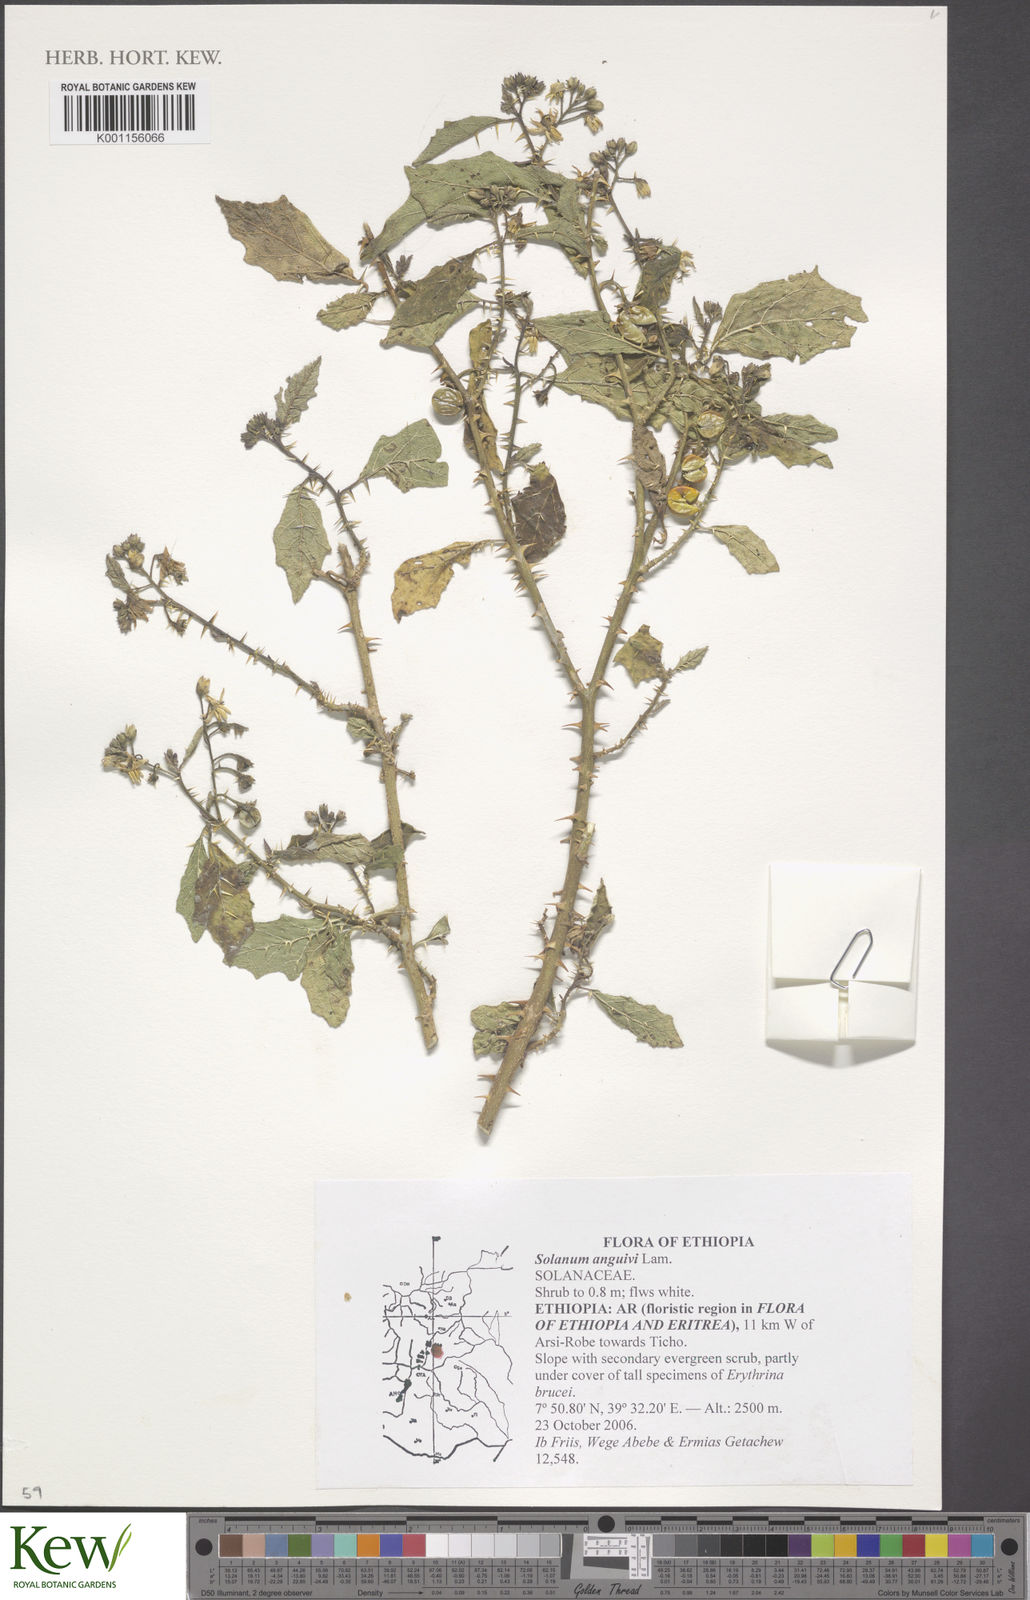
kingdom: Plantae
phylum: Tracheophyta
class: Magnoliopsida
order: Solanales
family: Solanaceae
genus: Solanum
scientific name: Solanum anguivi
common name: Forest bitterberry
